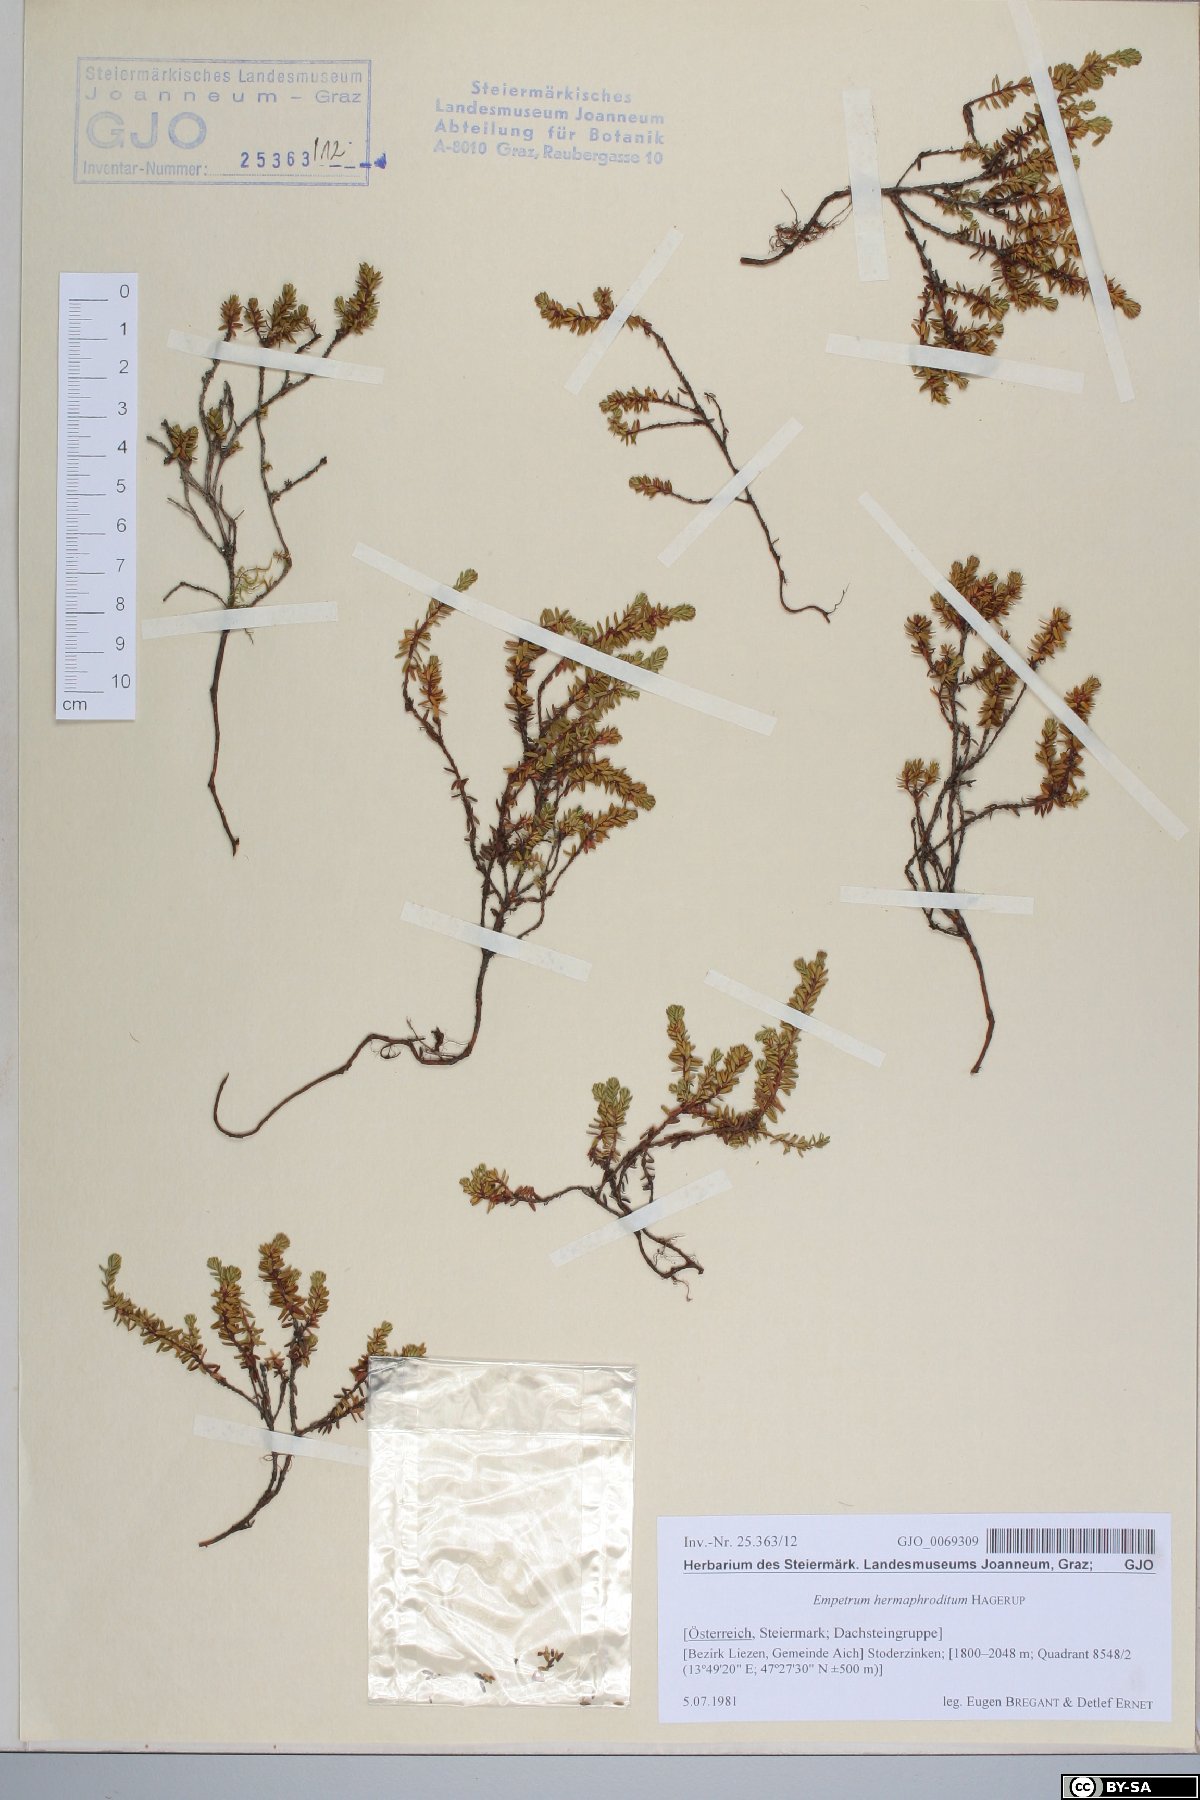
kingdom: Plantae
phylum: Tracheophyta
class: Magnoliopsida
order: Ericales
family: Ericaceae
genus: Empetrum
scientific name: Empetrum hermaphroditum
